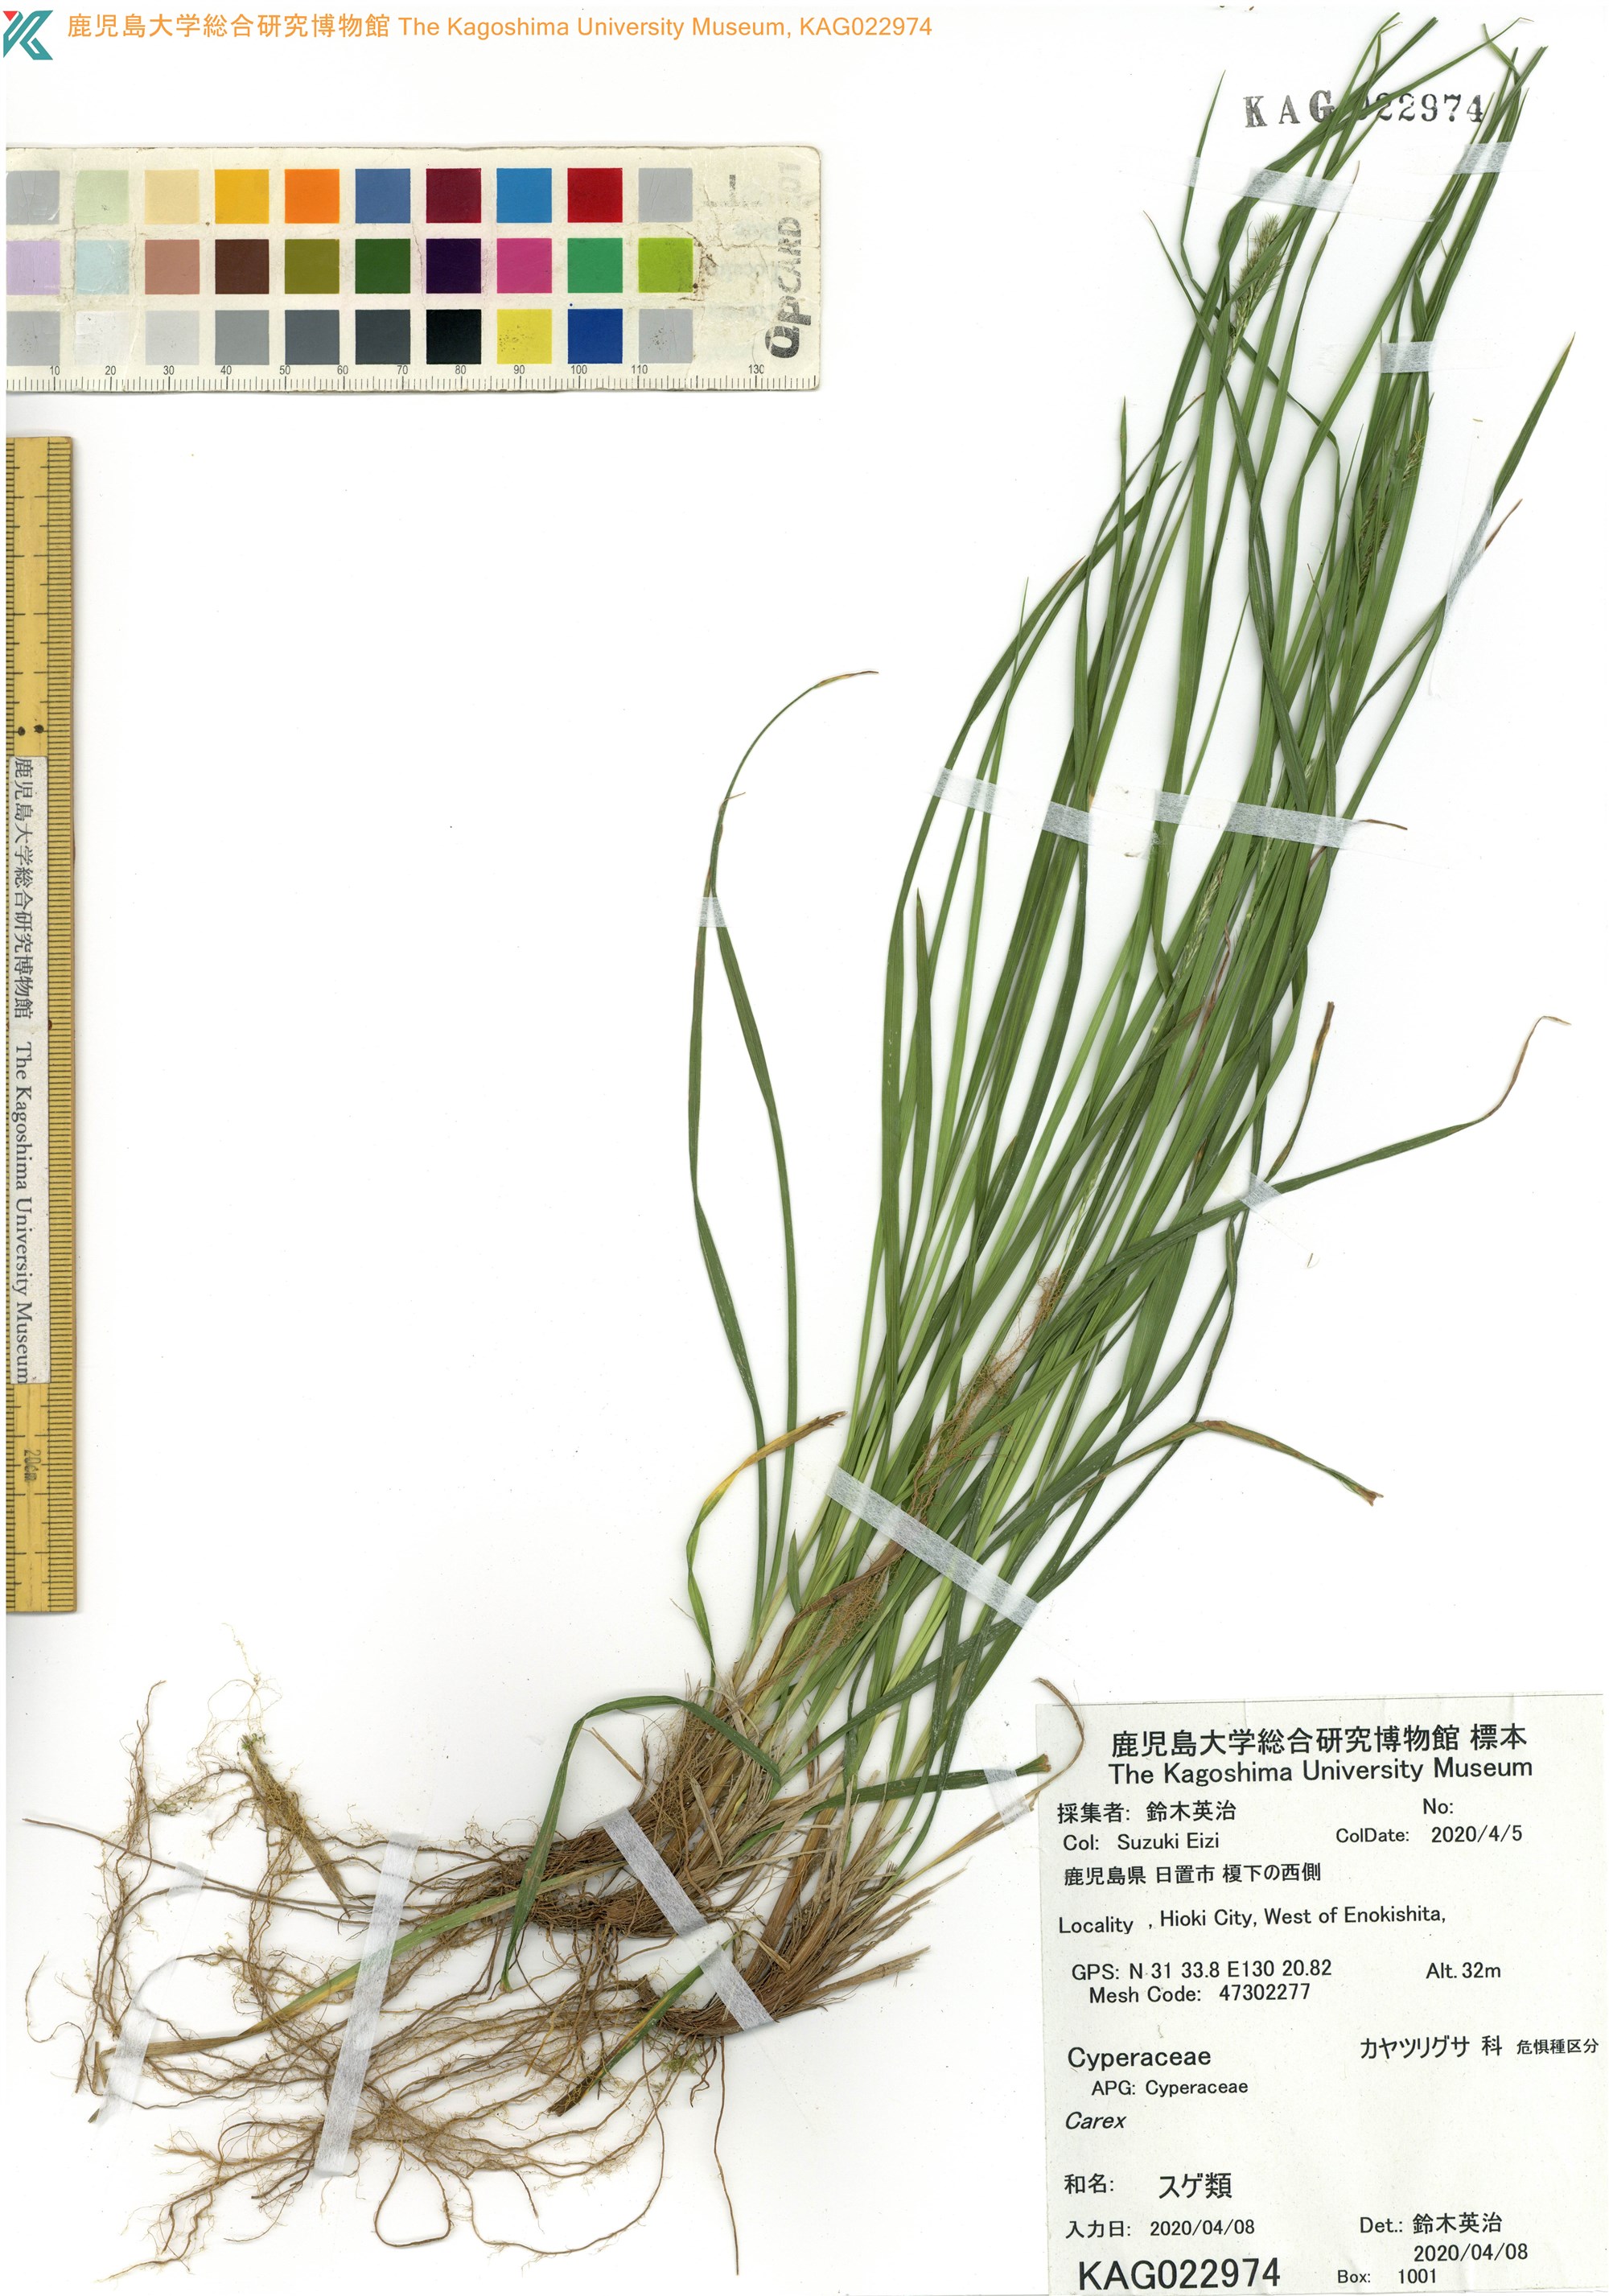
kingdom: Plantae
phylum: Tracheophyta
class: Liliopsida
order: Poales
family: Cyperaceae
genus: Carex
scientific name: Carex
